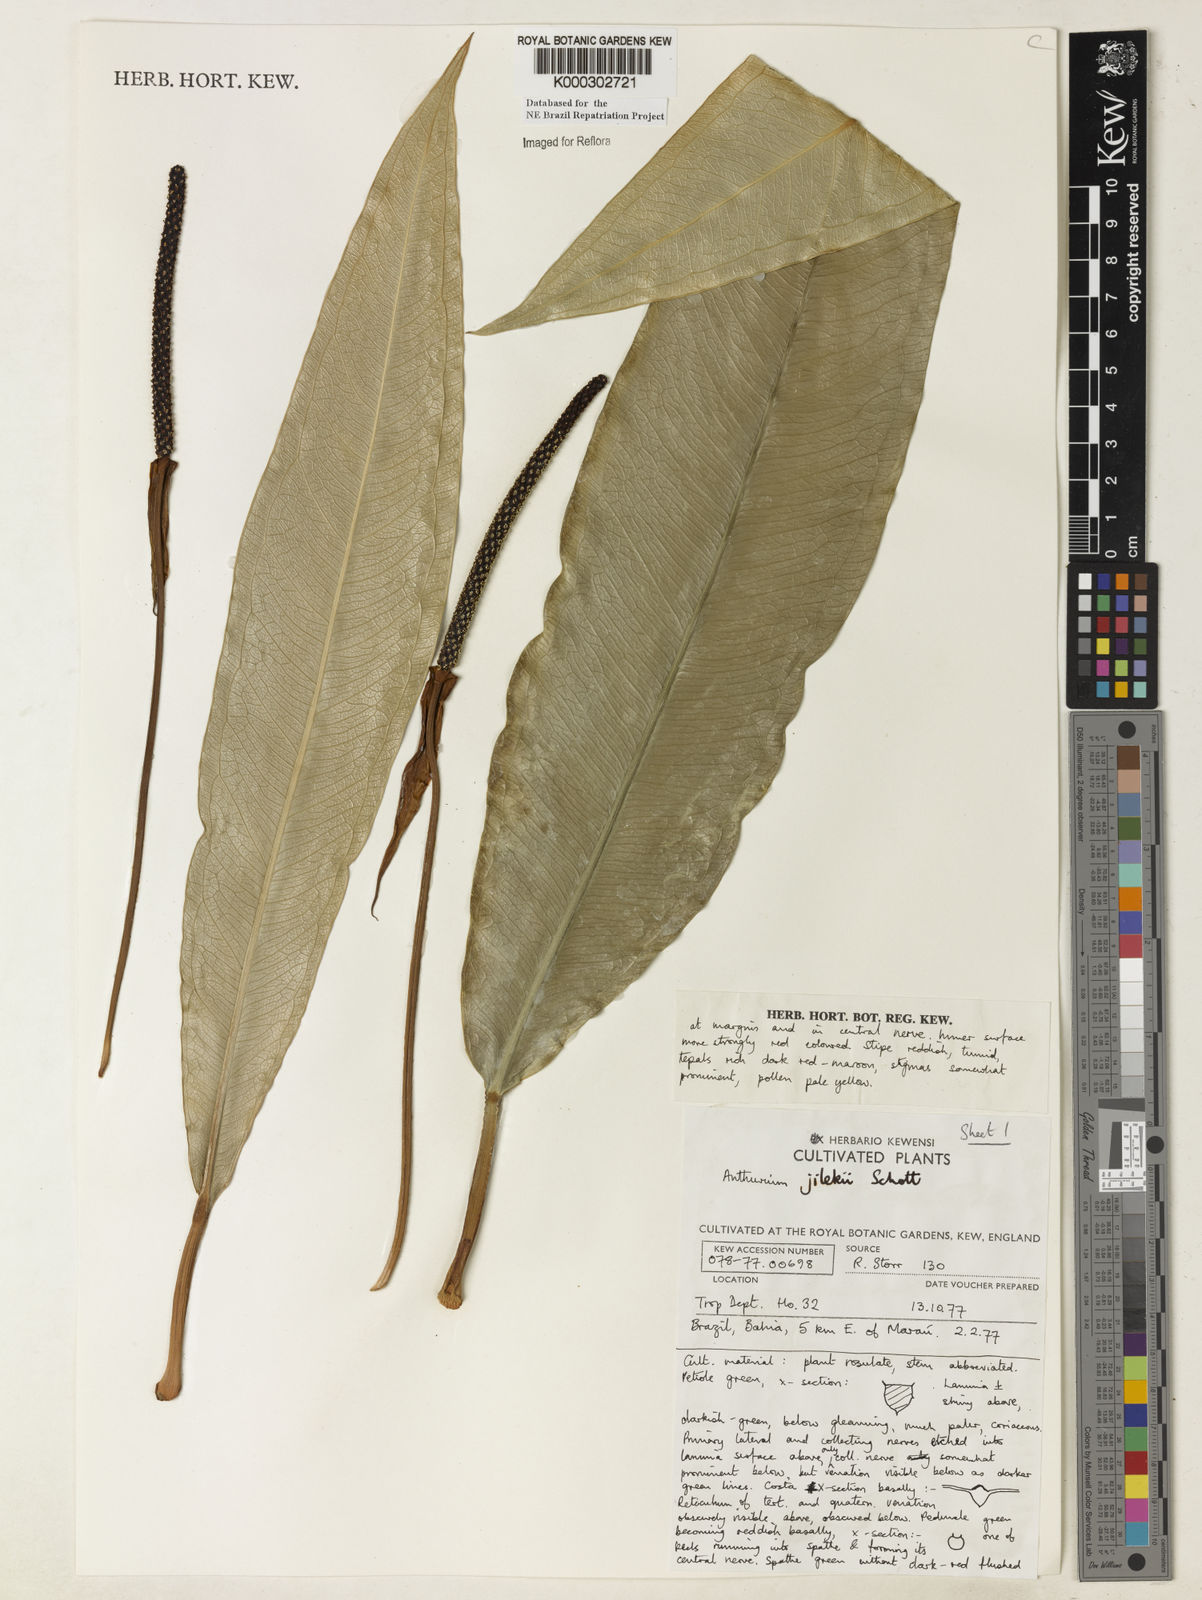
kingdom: Plantae
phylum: Tracheophyta
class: Liliopsida
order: Alismatales
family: Araceae
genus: Anthurium
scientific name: Anthurium jilekii
